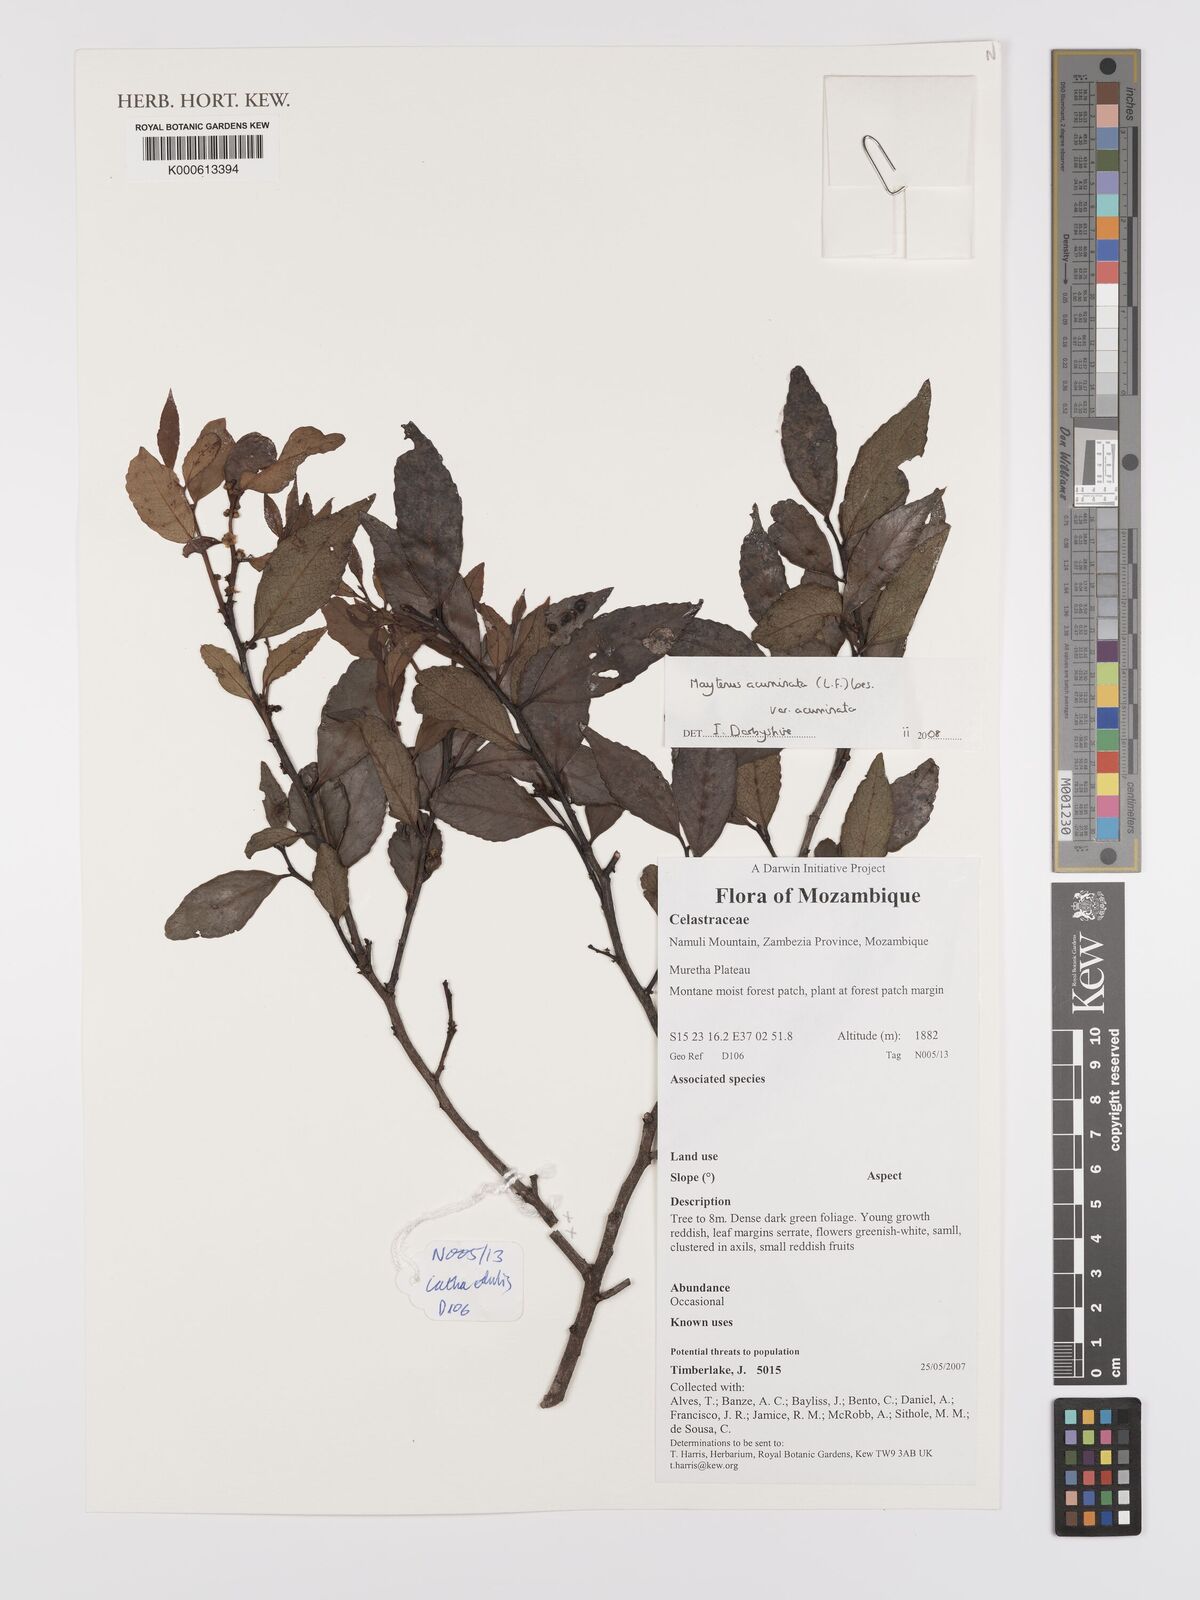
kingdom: Plantae
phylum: Tracheophyta
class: Magnoliopsida
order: Celastrales
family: Celastraceae
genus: Gymnosporia
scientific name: Gymnosporia acuminata
